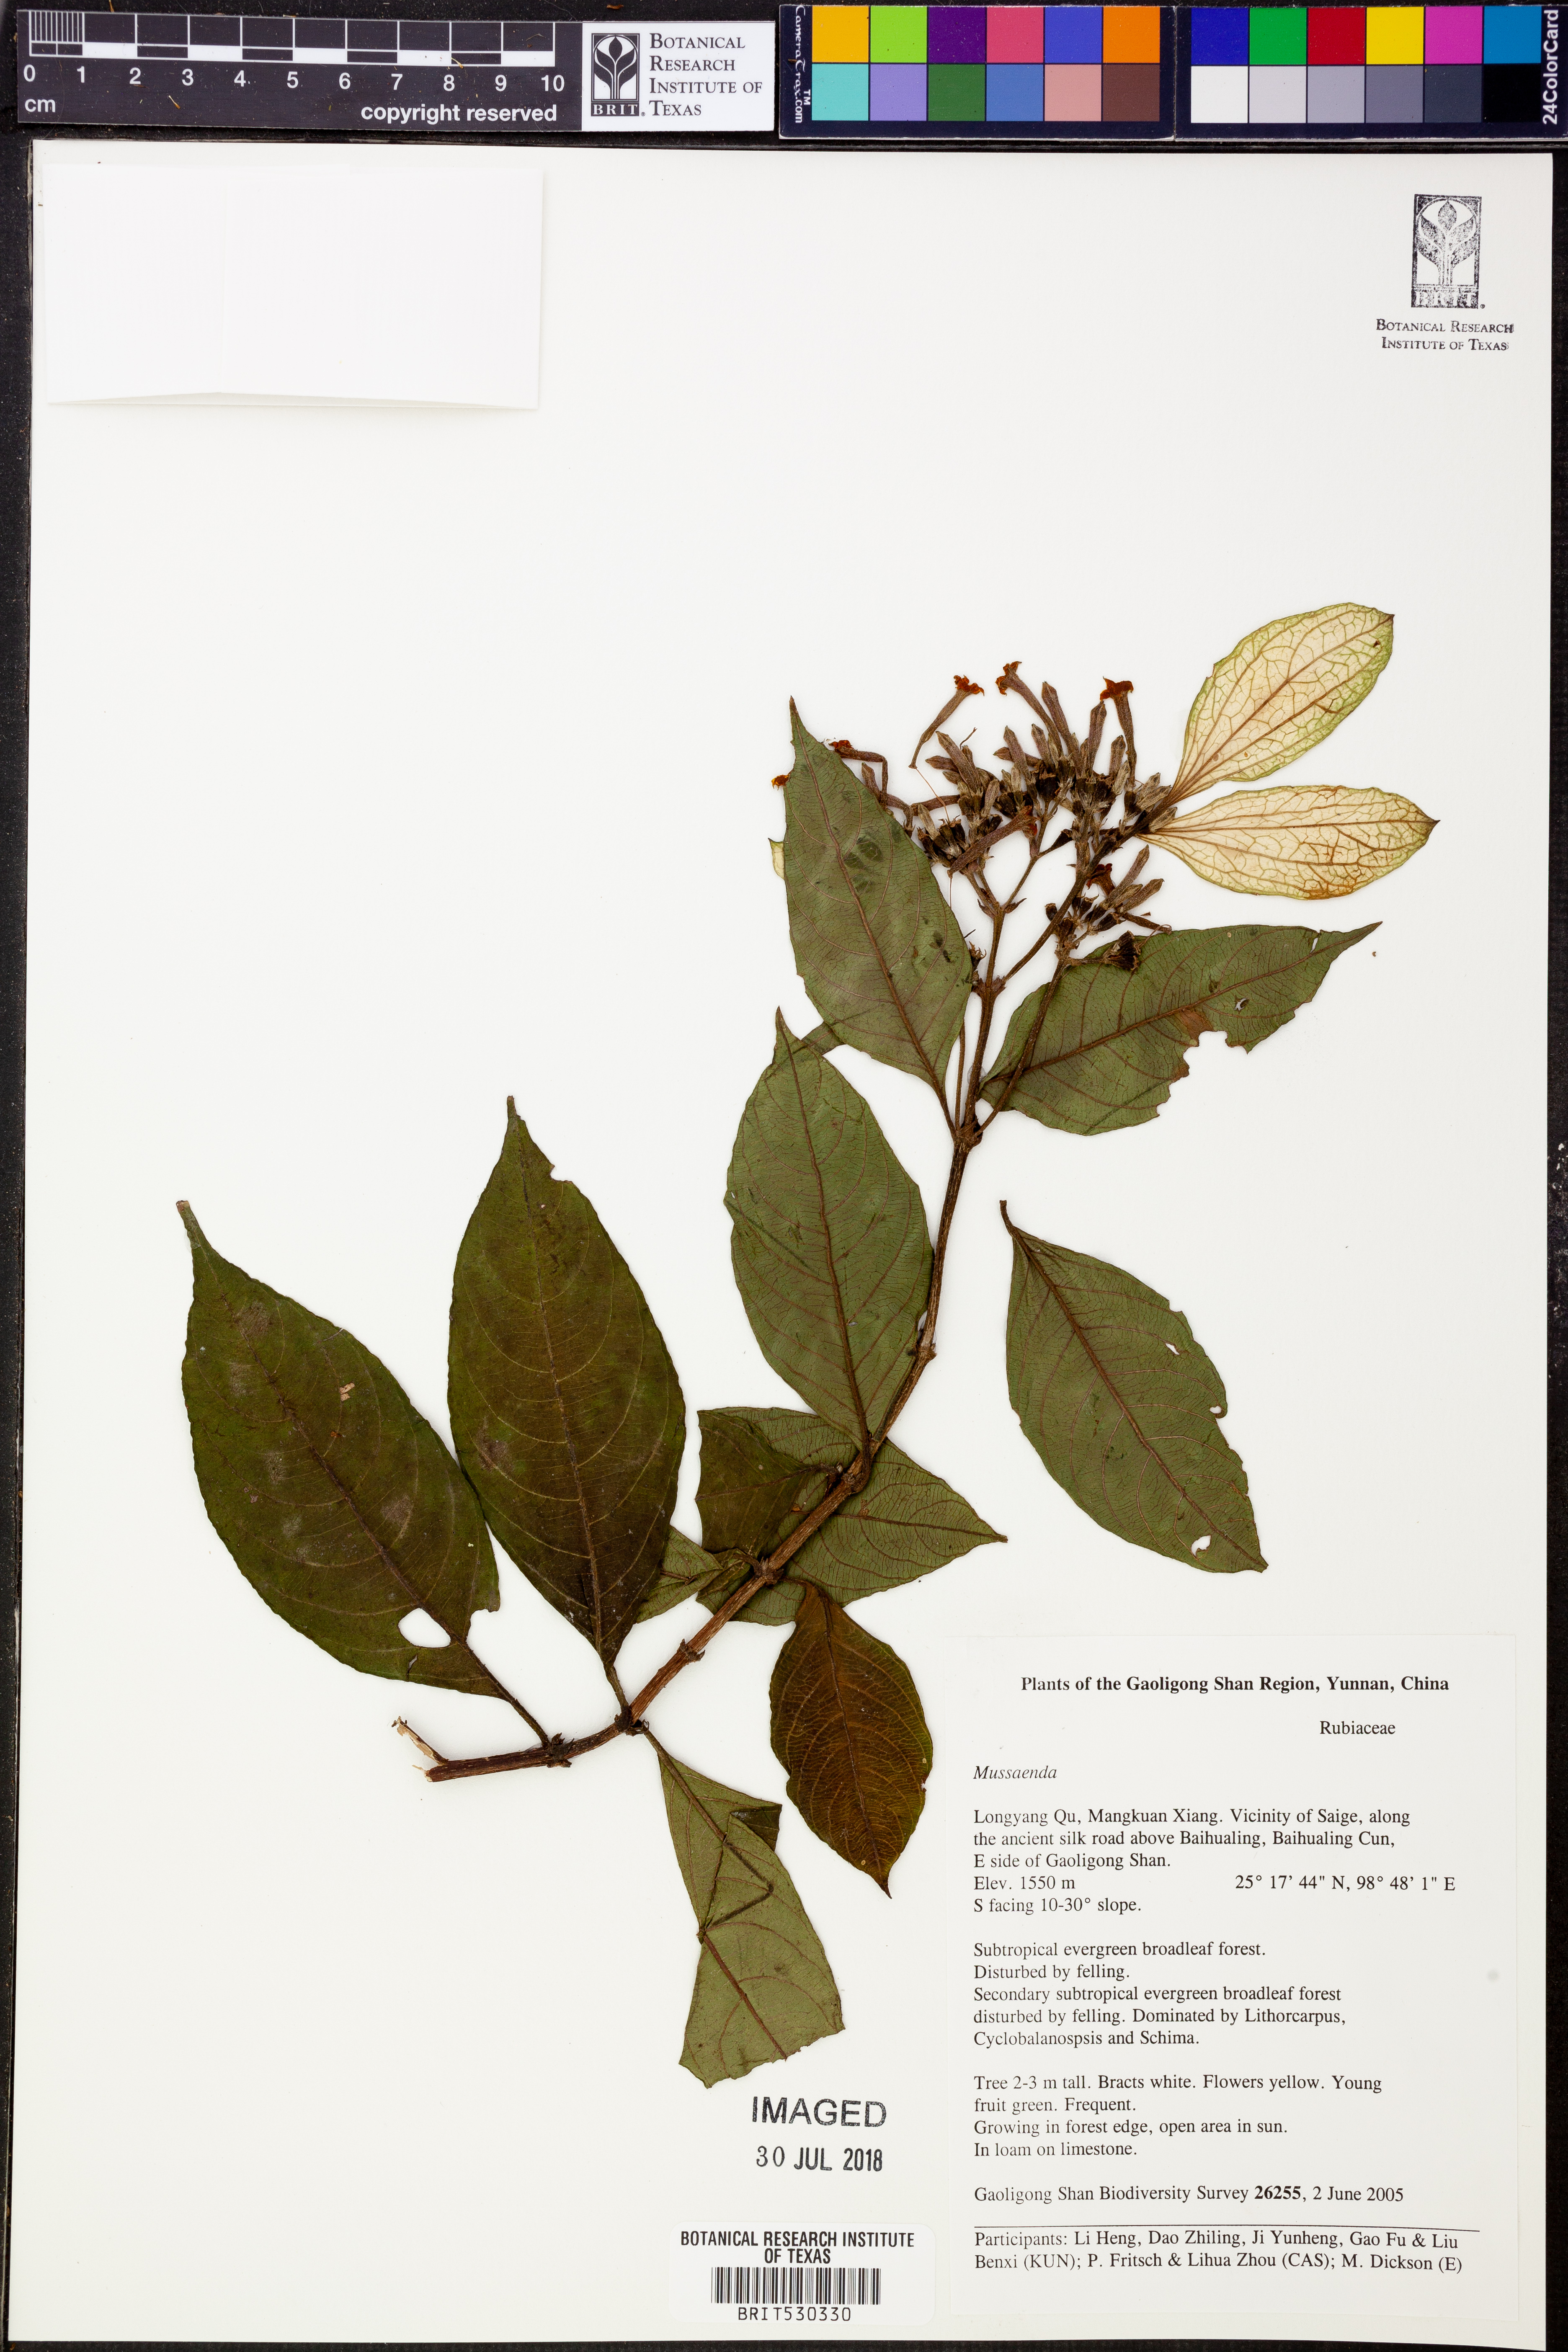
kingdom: Plantae
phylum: Tracheophyta
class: Magnoliopsida
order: Gentianales
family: Rubiaceae
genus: Mussaenda
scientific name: Mussaenda
